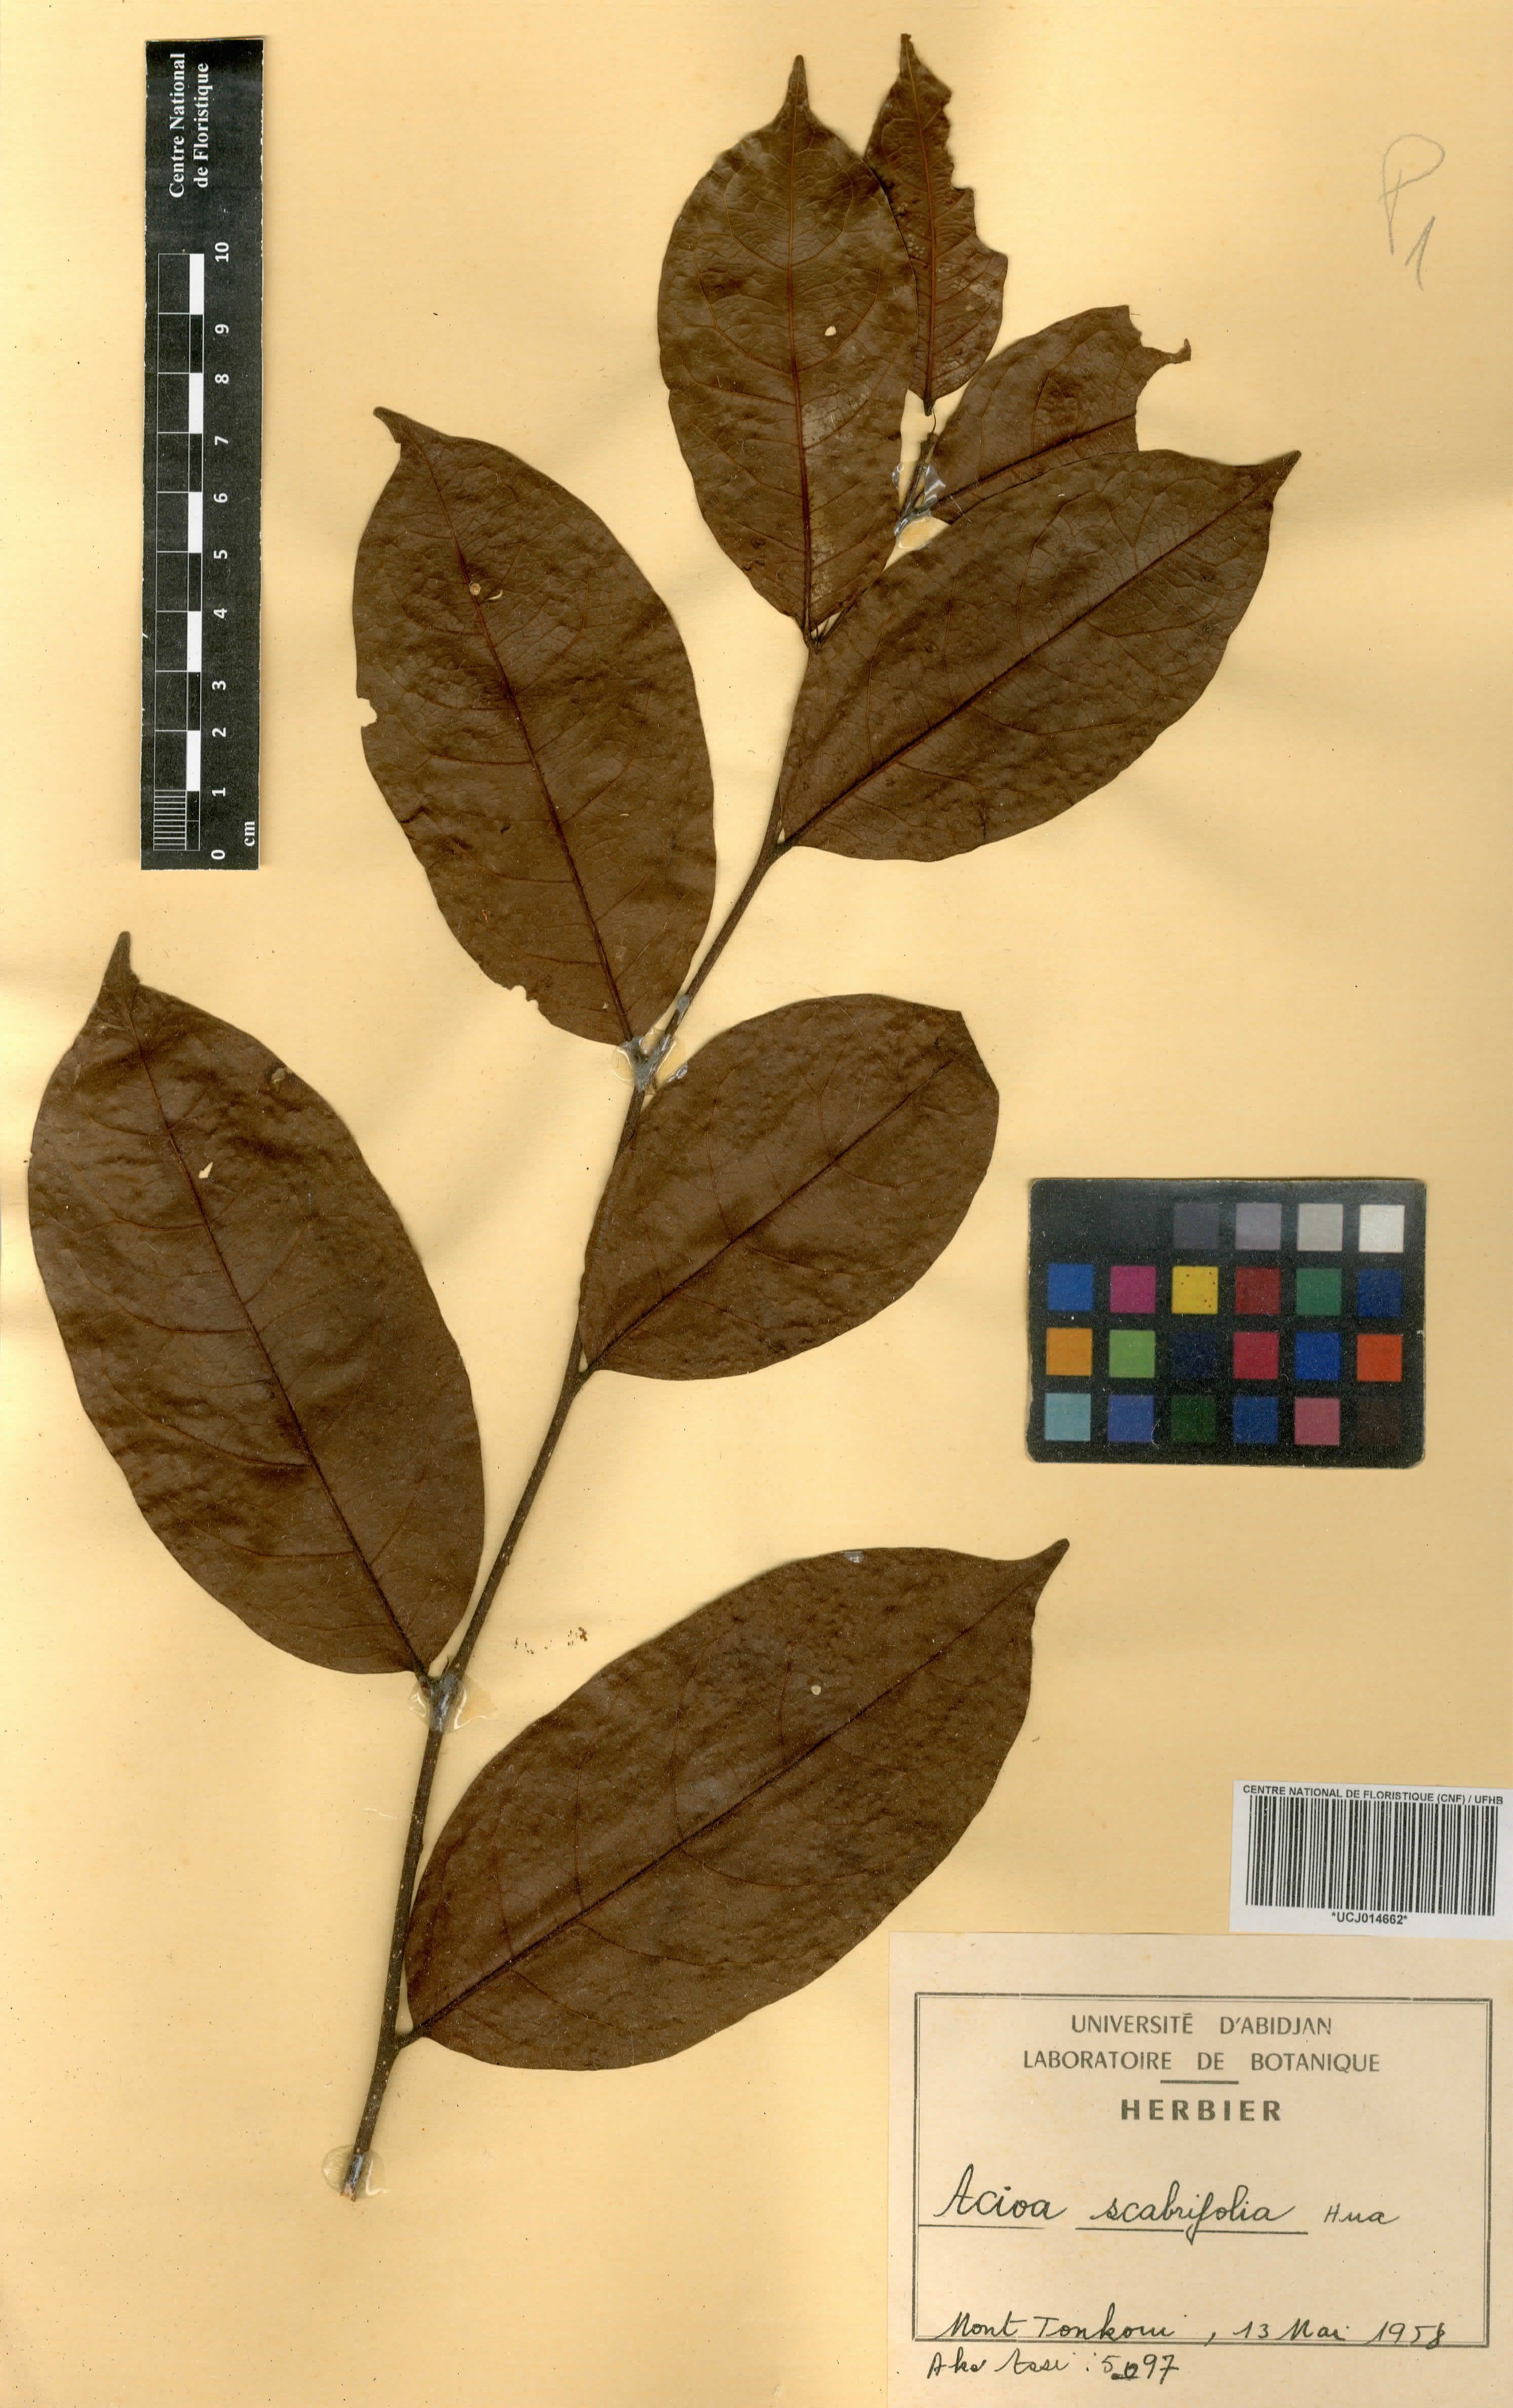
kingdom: Plantae
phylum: Tracheophyta
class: Magnoliopsida
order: Malpighiales
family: Chrysobalanaceae
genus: Dactyladenia
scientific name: Dactyladenia scabrifolia
